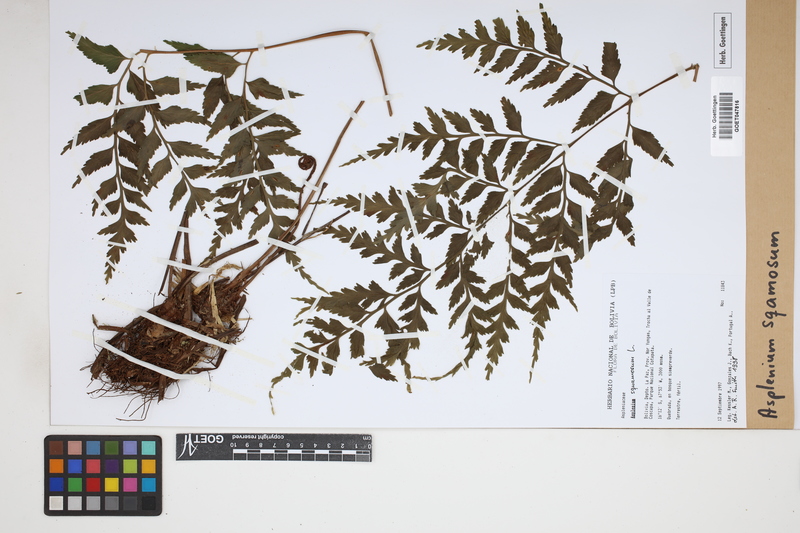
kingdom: Plantae
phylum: Tracheophyta
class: Polypodiopsida
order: Polypodiales
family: Aspleniaceae
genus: Asplenium
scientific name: Asplenium squamosum
